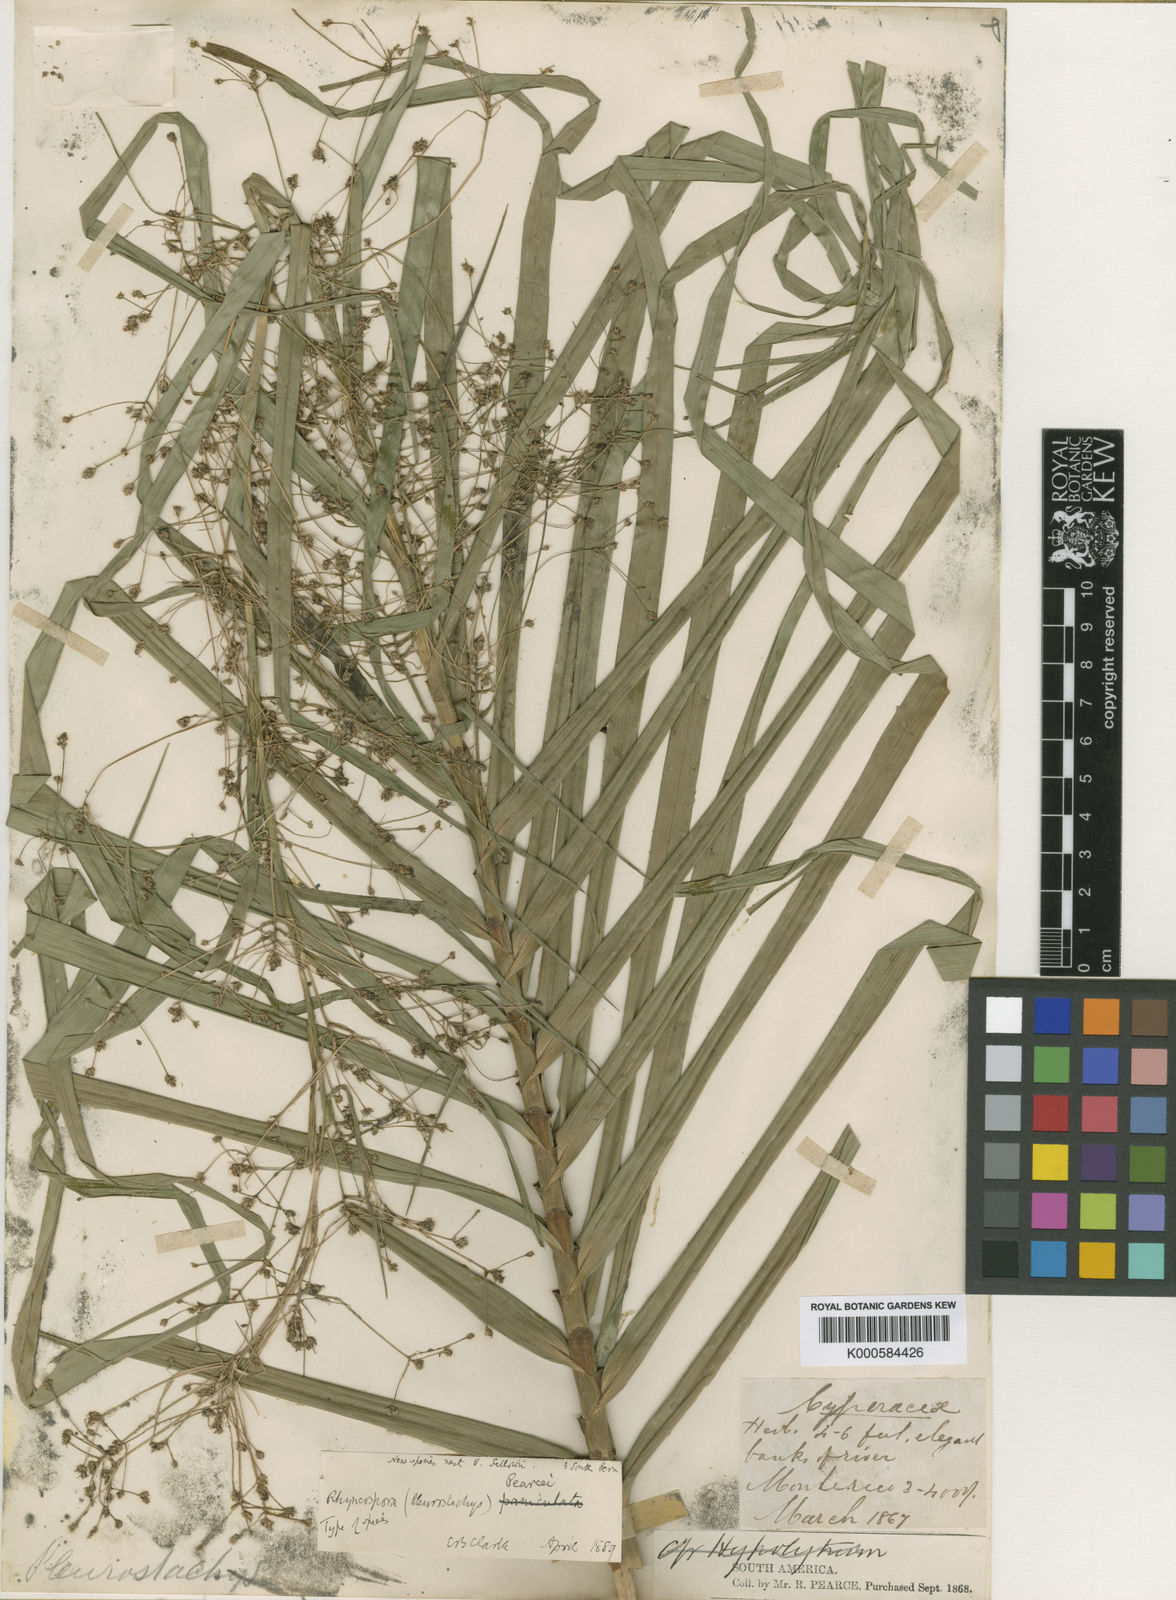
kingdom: Plantae
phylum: Tracheophyta
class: Liliopsida
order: Poales
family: Cyperaceae
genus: Rhynchospora
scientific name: Rhynchospora pearcei
